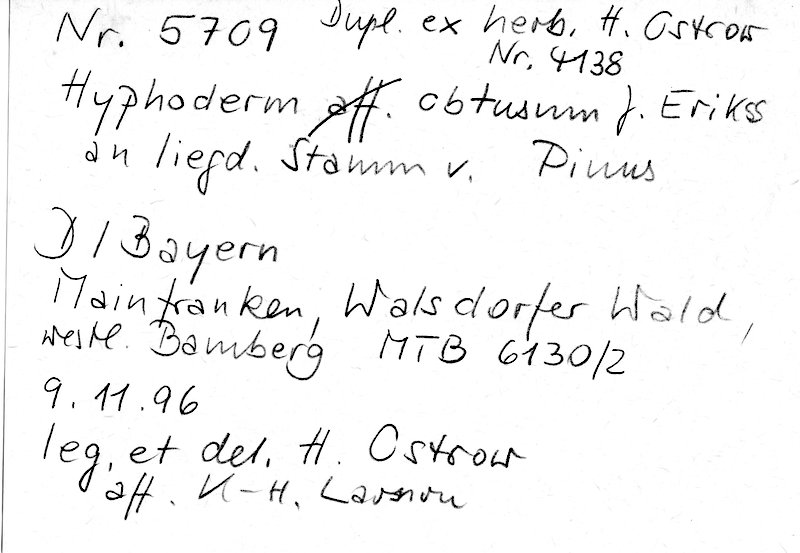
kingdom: Fungi
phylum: Basidiomycota
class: Agaricomycetes
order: Polyporales
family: Hyphodermataceae
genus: Hyphoderma
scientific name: Hyphoderma obtusum
